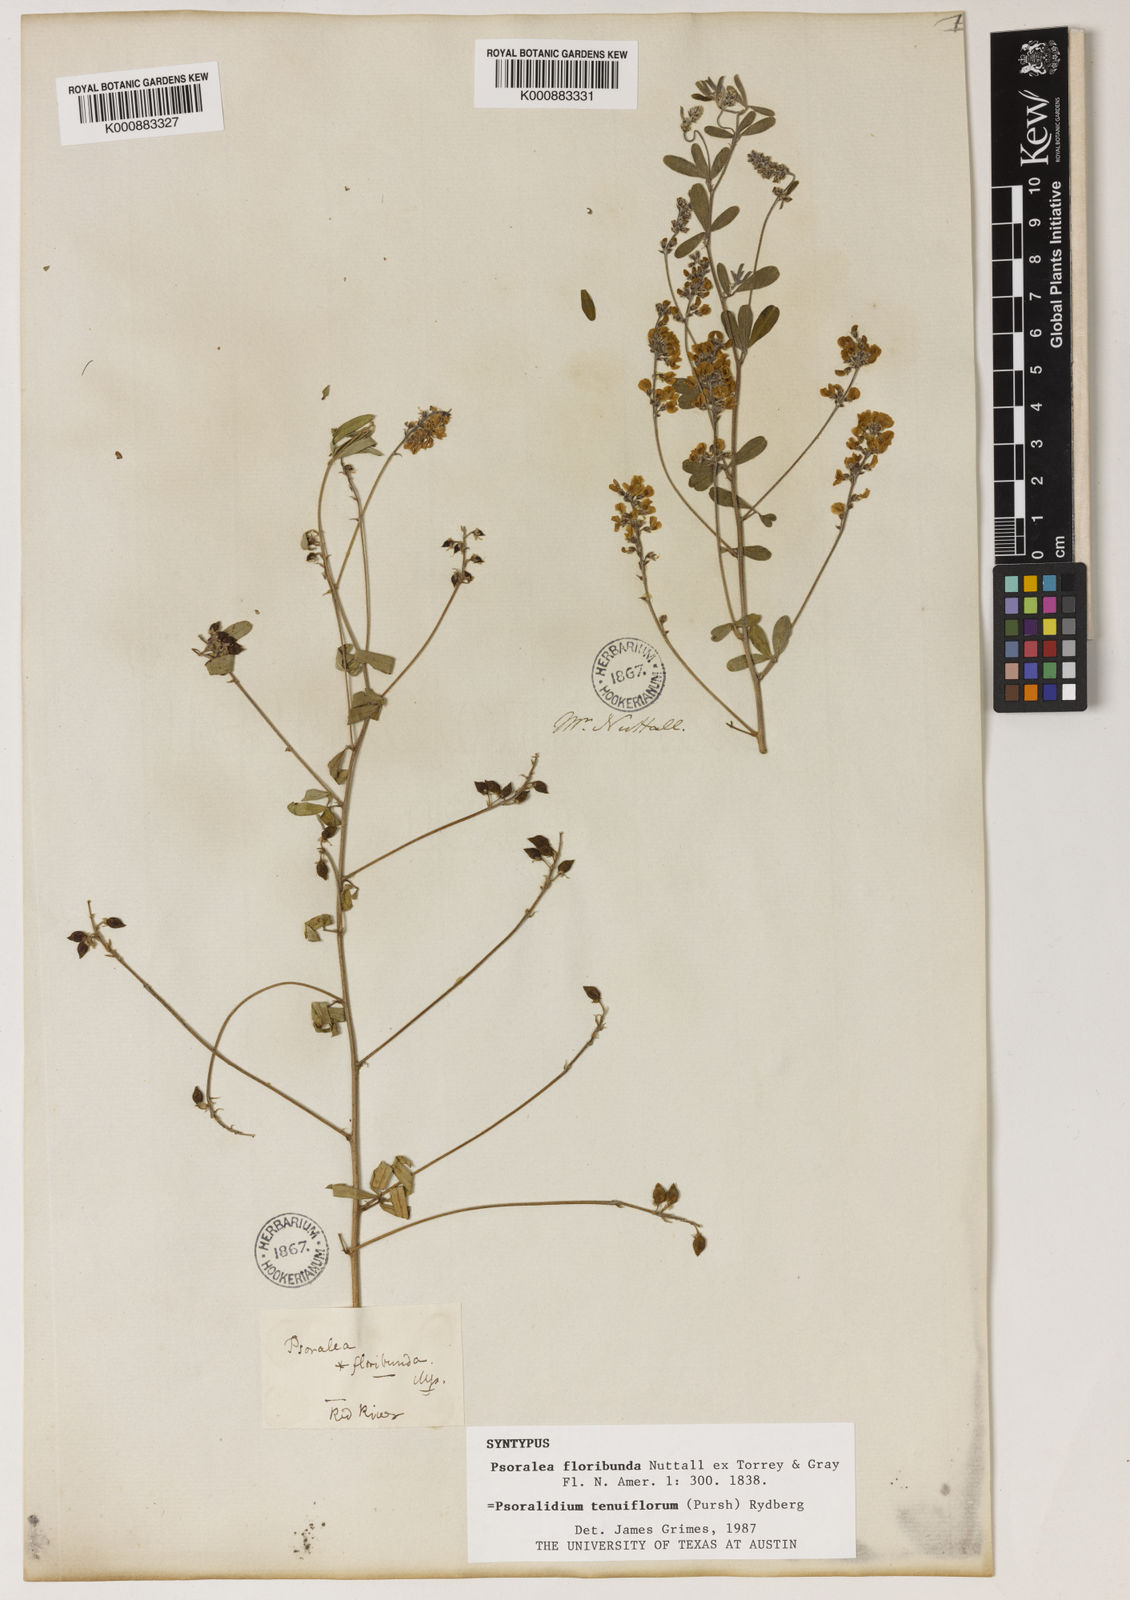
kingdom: Plantae
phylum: Tracheophyta
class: Liliopsida
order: Poales
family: Poaceae
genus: Anthenantia
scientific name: Anthenantia lanata
